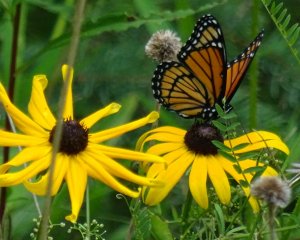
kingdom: Animalia
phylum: Arthropoda
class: Insecta
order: Lepidoptera
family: Nymphalidae
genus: Limenitis
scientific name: Limenitis archippus
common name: Viceroy
